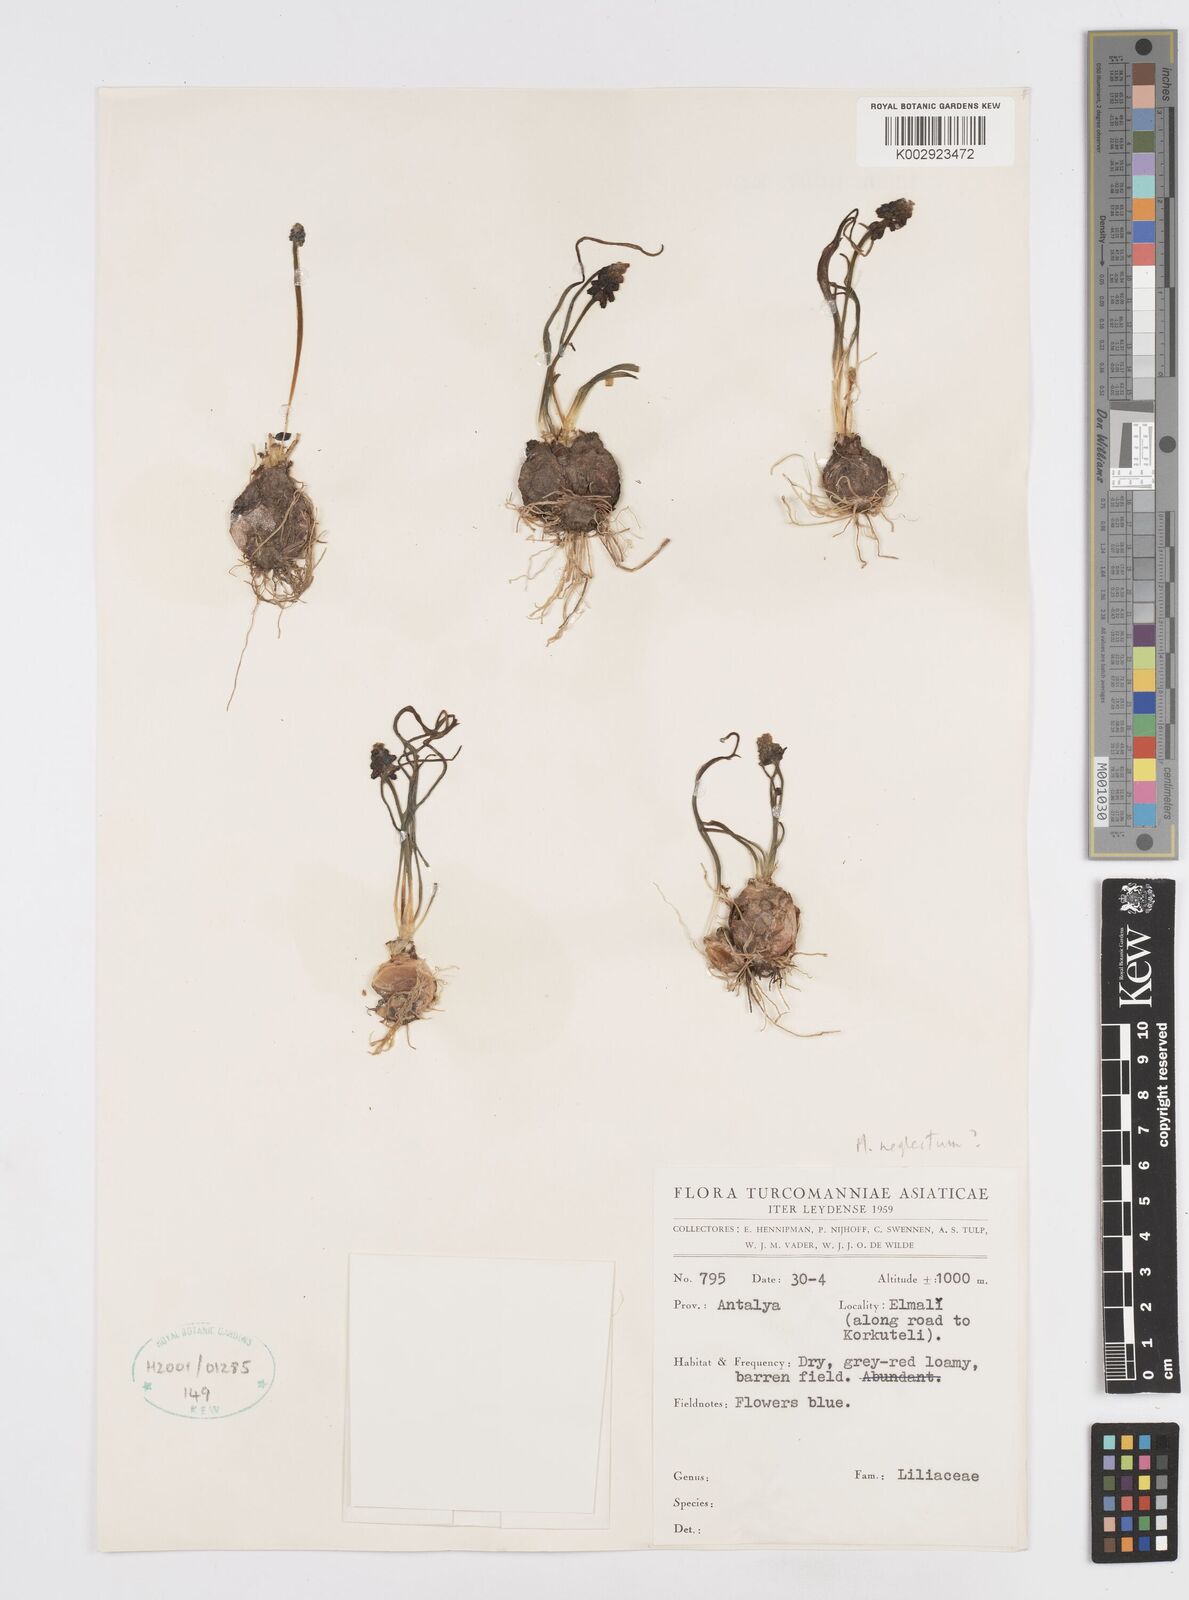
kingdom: Plantae
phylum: Tracheophyta
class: Liliopsida
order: Asparagales
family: Asparagaceae
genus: Muscari
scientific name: Muscari neglectum
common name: Grape-hyacinth
